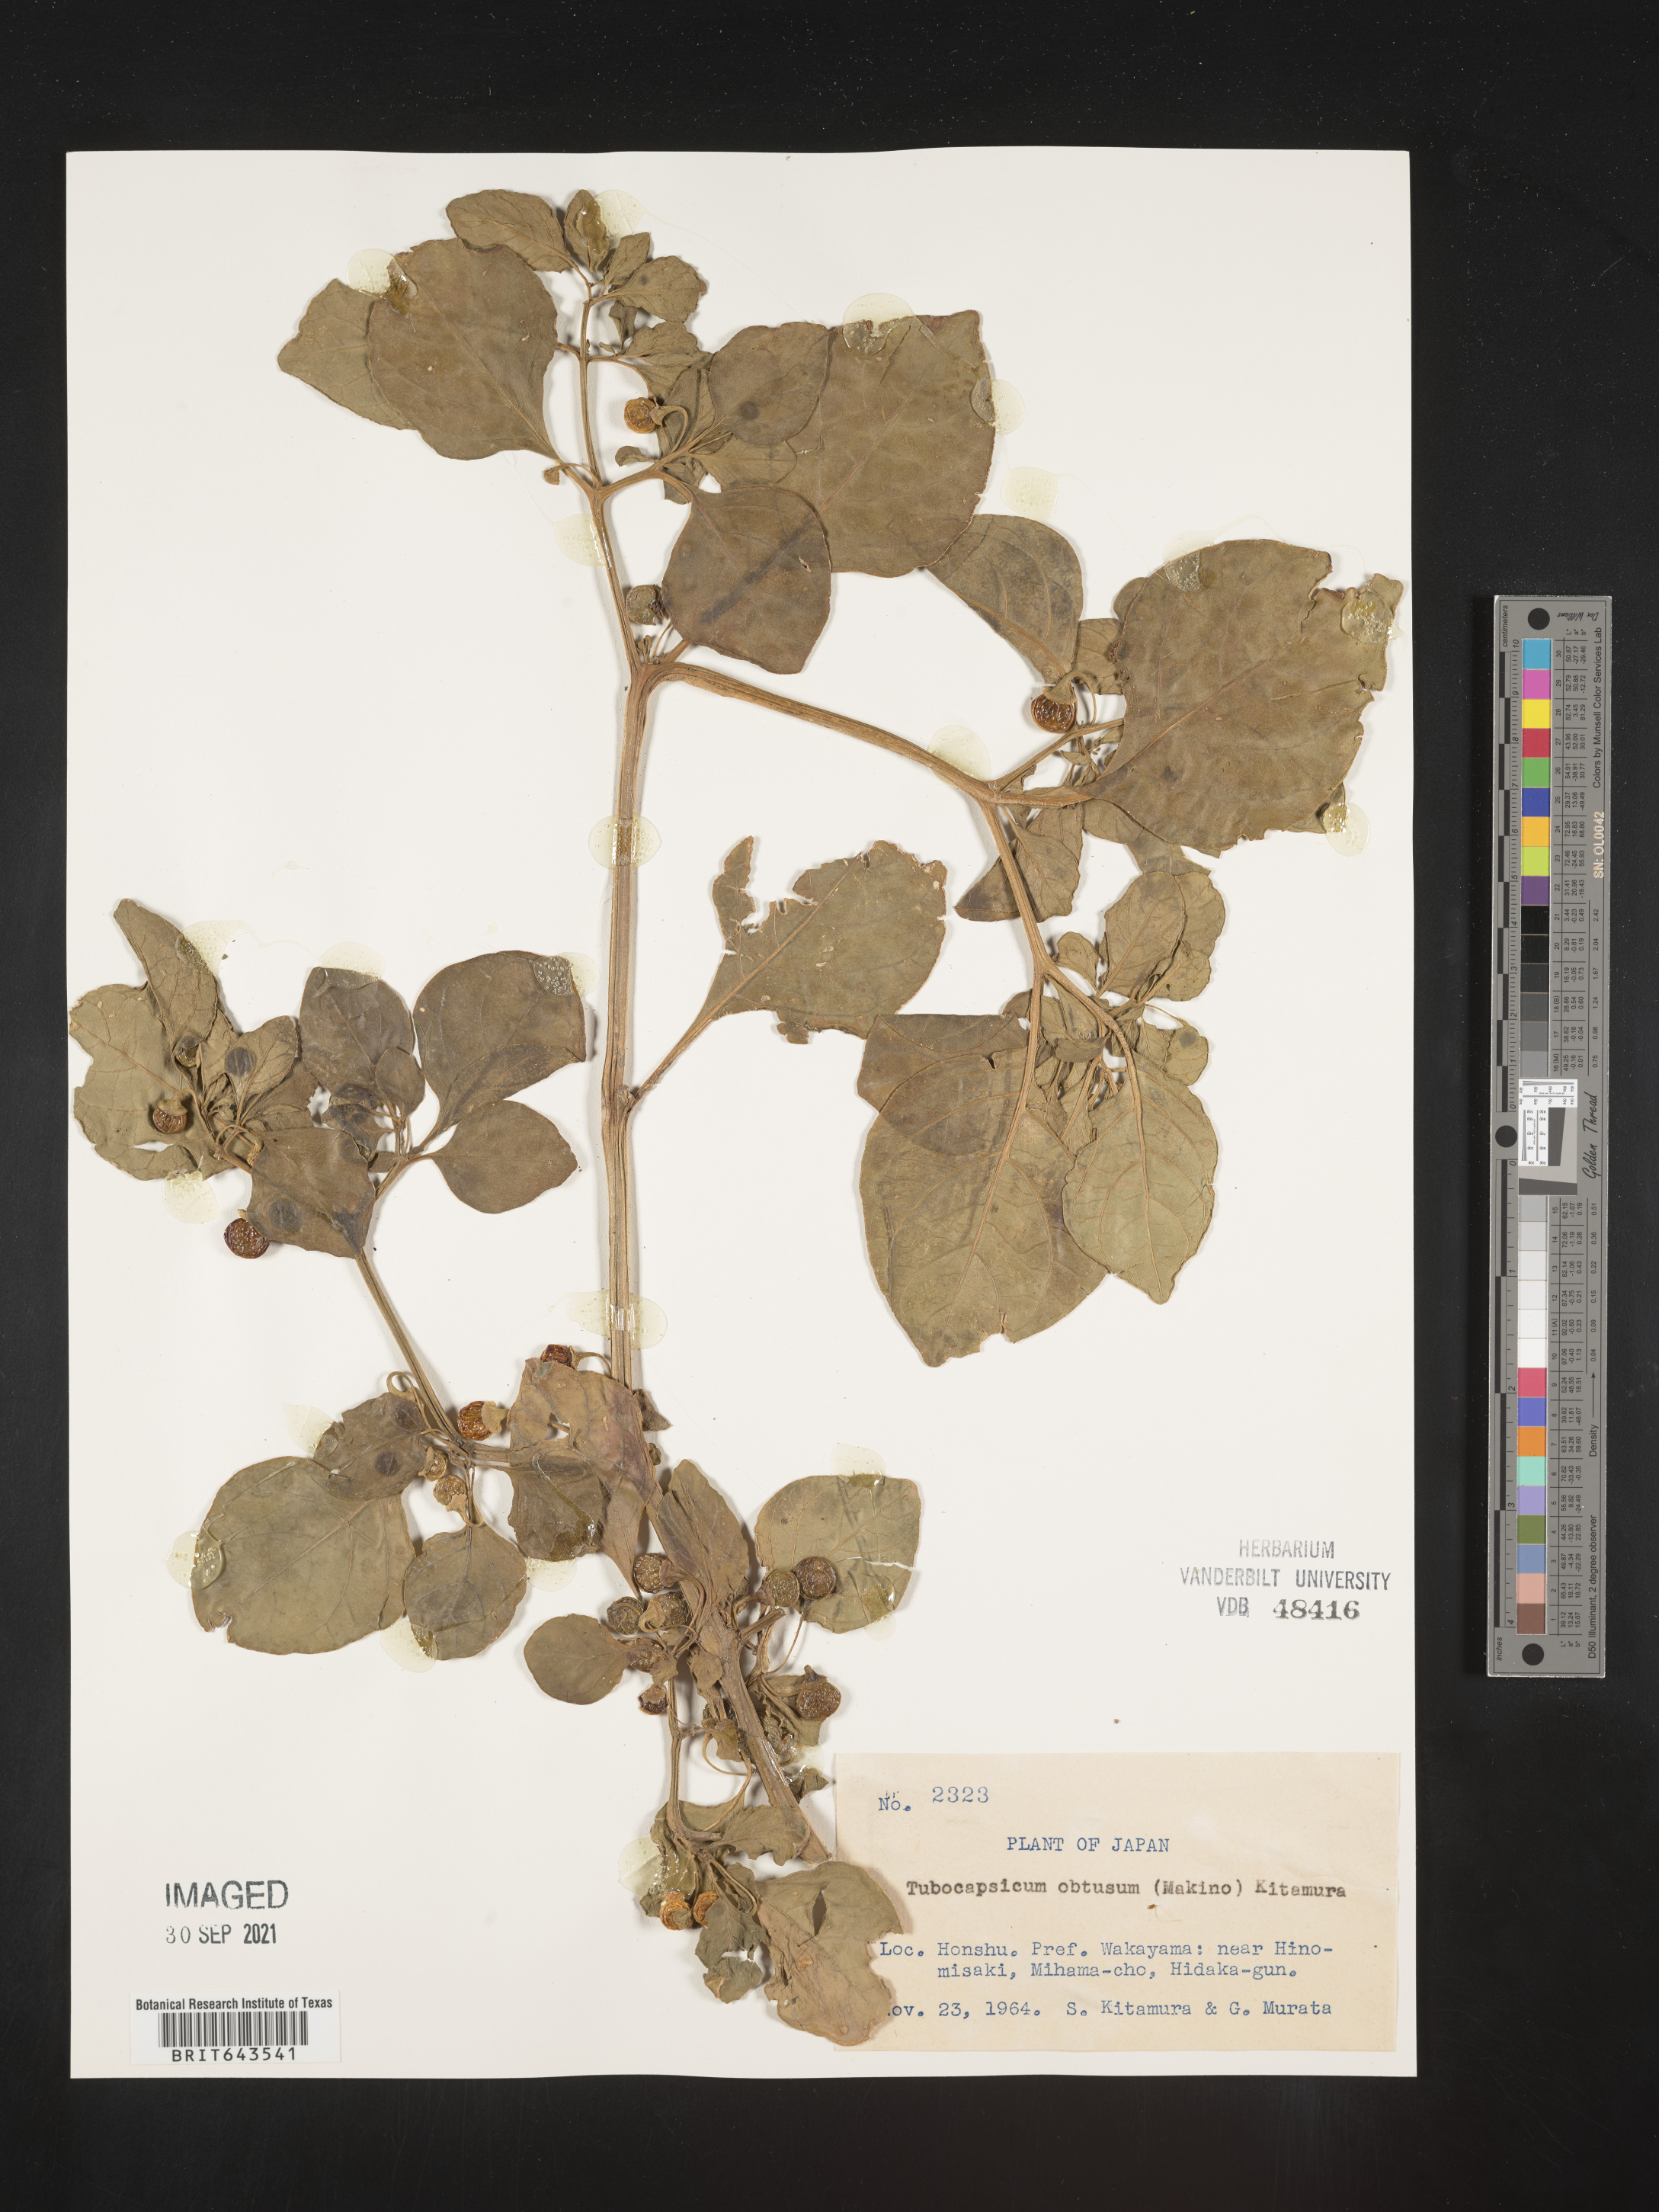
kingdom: Plantae
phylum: Tracheophyta
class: Magnoliopsida
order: Solanales
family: Solanaceae
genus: Tubocapsicum
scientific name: Tubocapsicum anomalum
